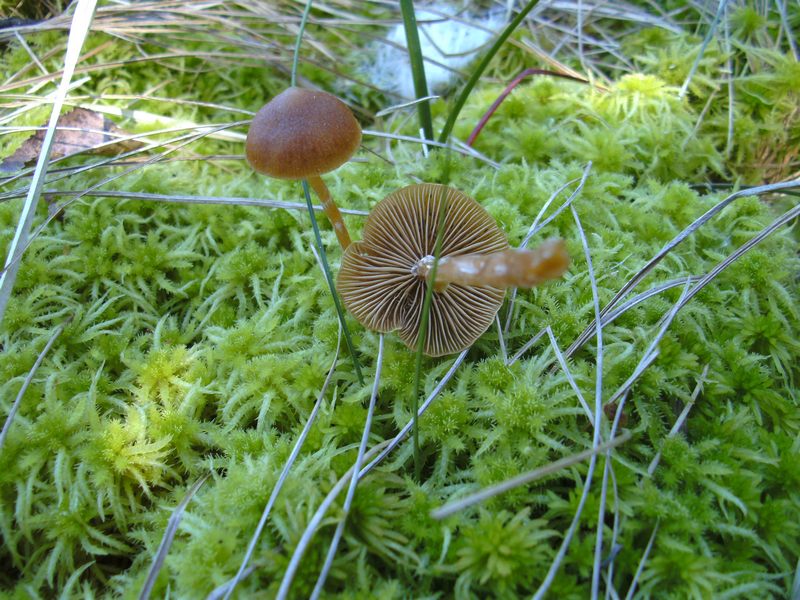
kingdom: Fungi
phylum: Basidiomycota
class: Agaricomycetes
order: Agaricales
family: Hymenogastraceae
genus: Galerina
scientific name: Galerina paludosa
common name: mose-hjelmhat
